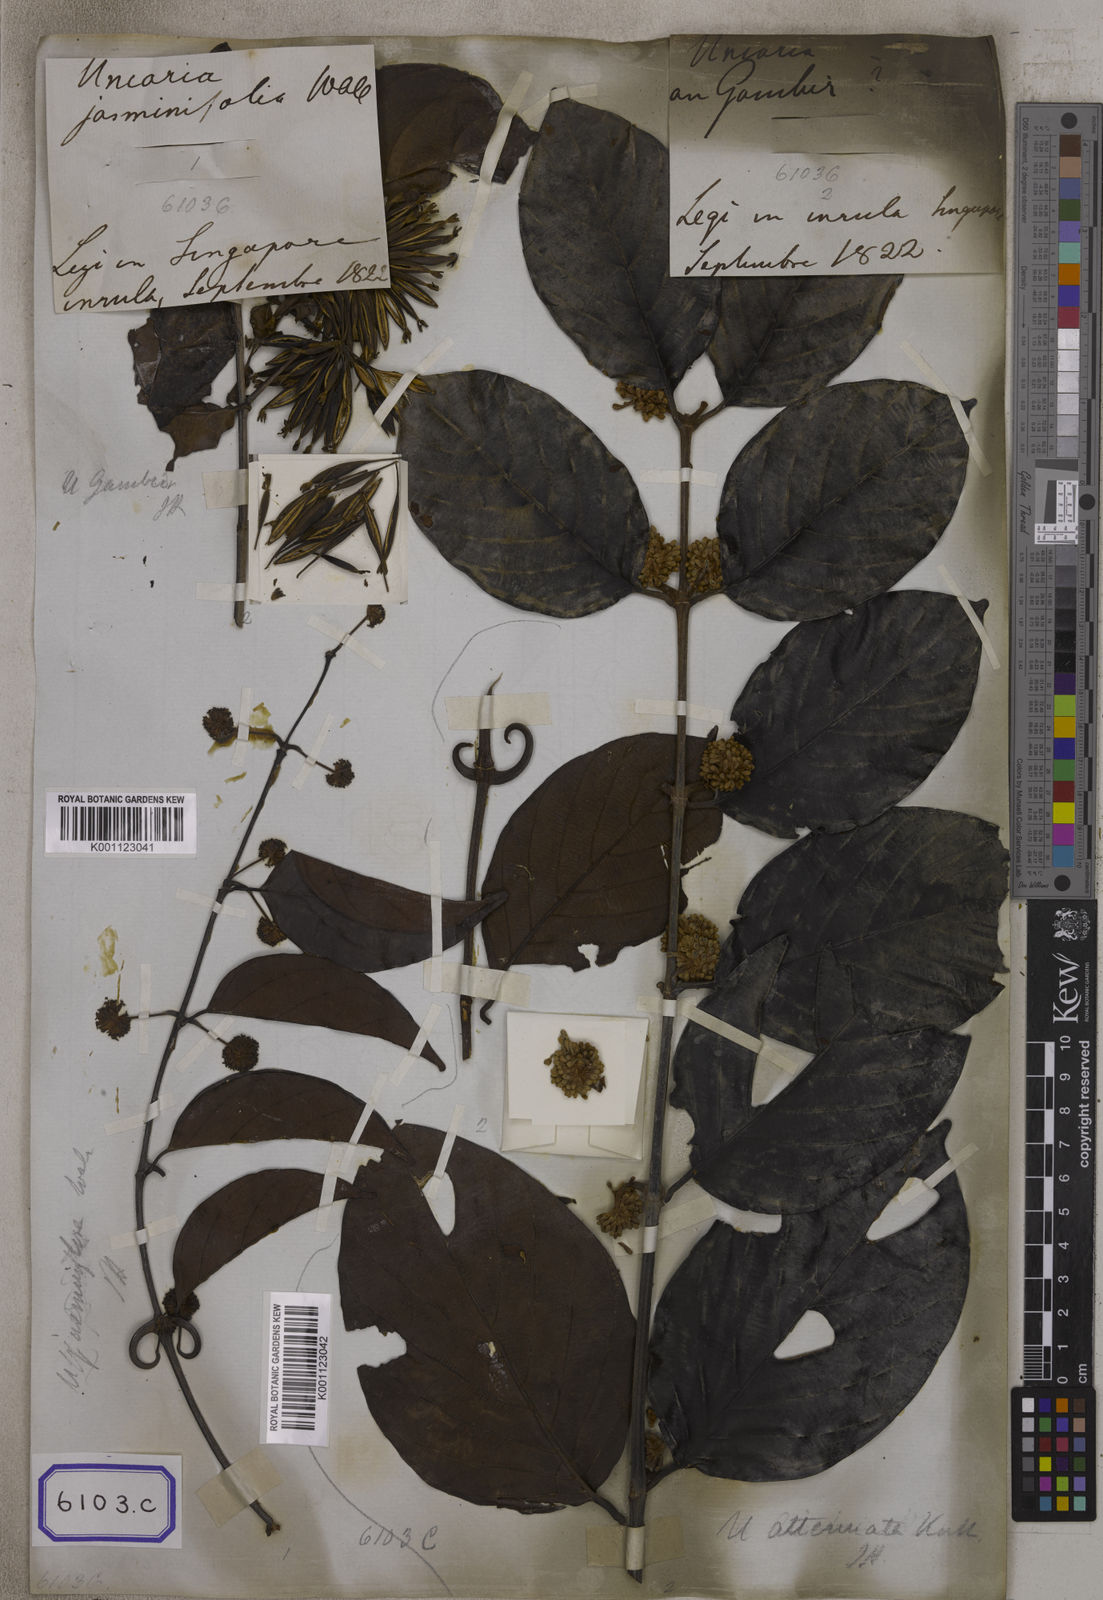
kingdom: Plantae
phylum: Tracheophyta
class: Magnoliopsida
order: Gentianales
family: Rubiaceae
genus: Uncaria
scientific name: Uncaria gambir
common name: Pale catechu
